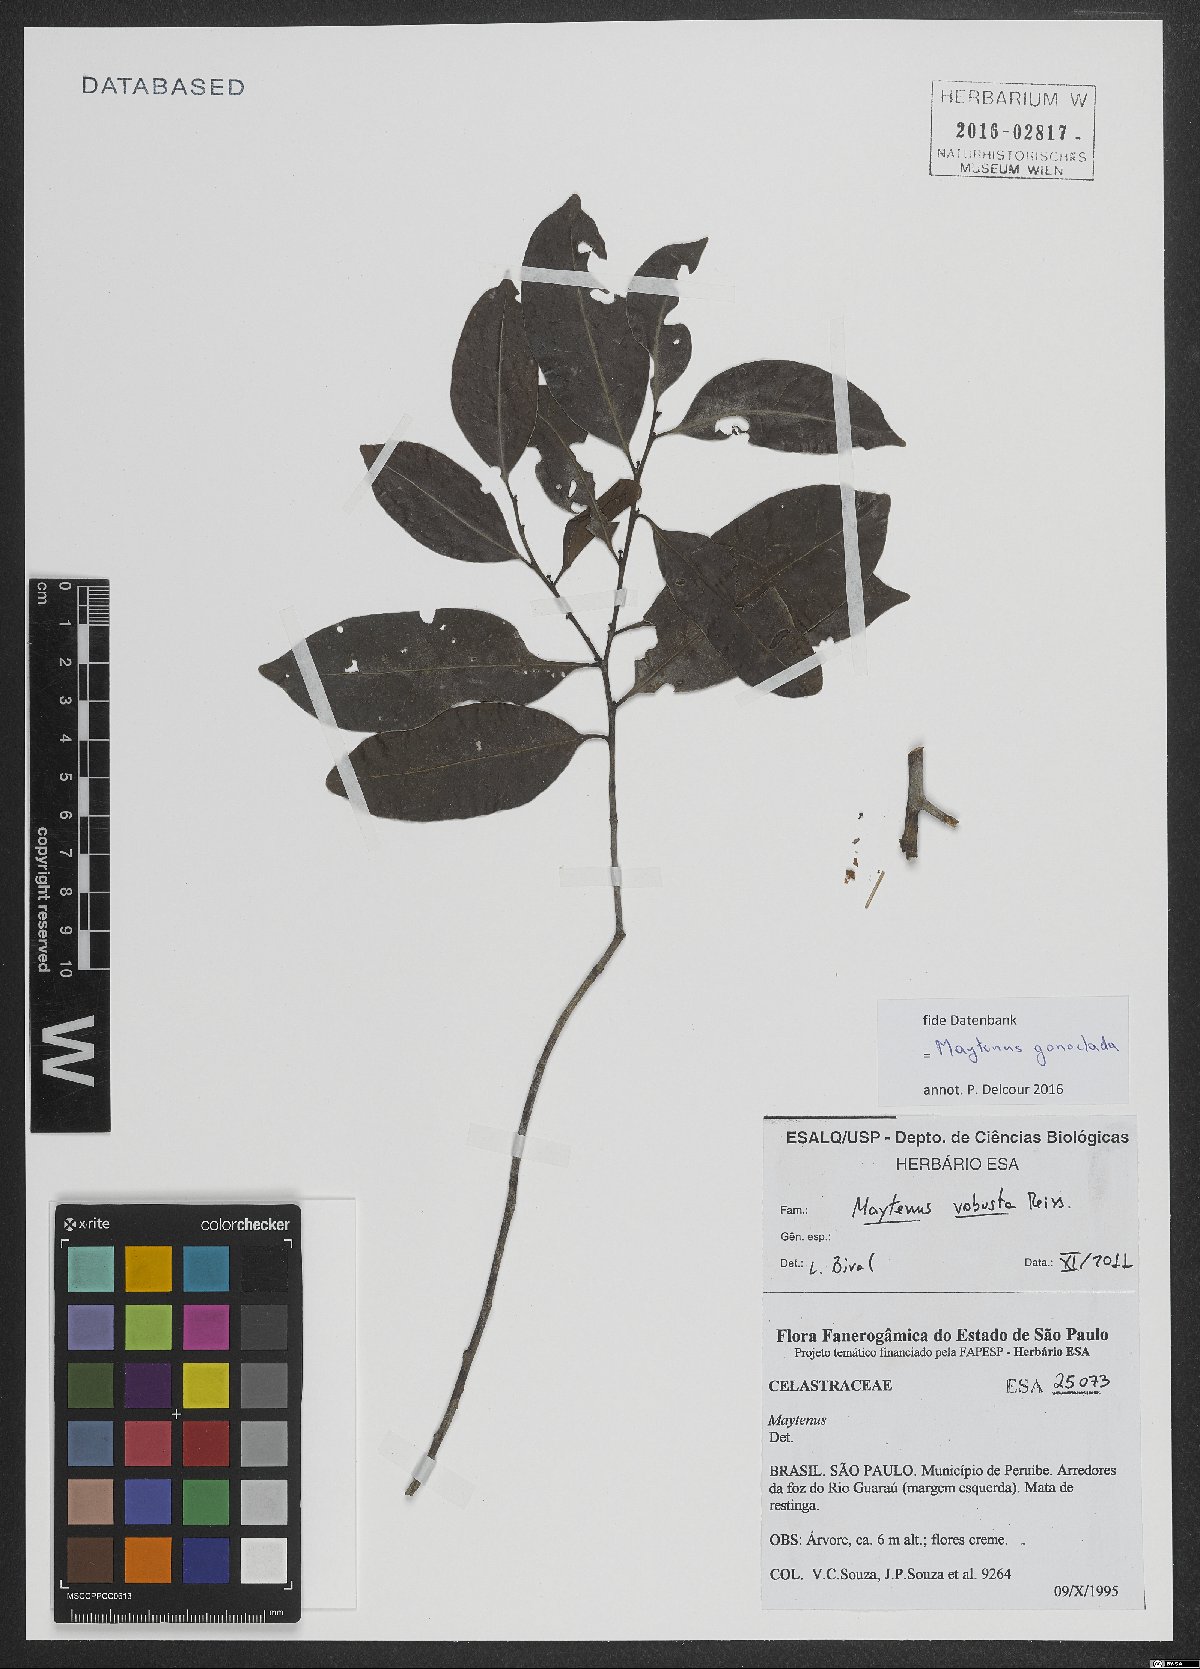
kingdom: Plantae
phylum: Tracheophyta
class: Magnoliopsida
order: Celastrales
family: Celastraceae
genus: Monteverdia
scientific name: Monteverdia gonoclada
